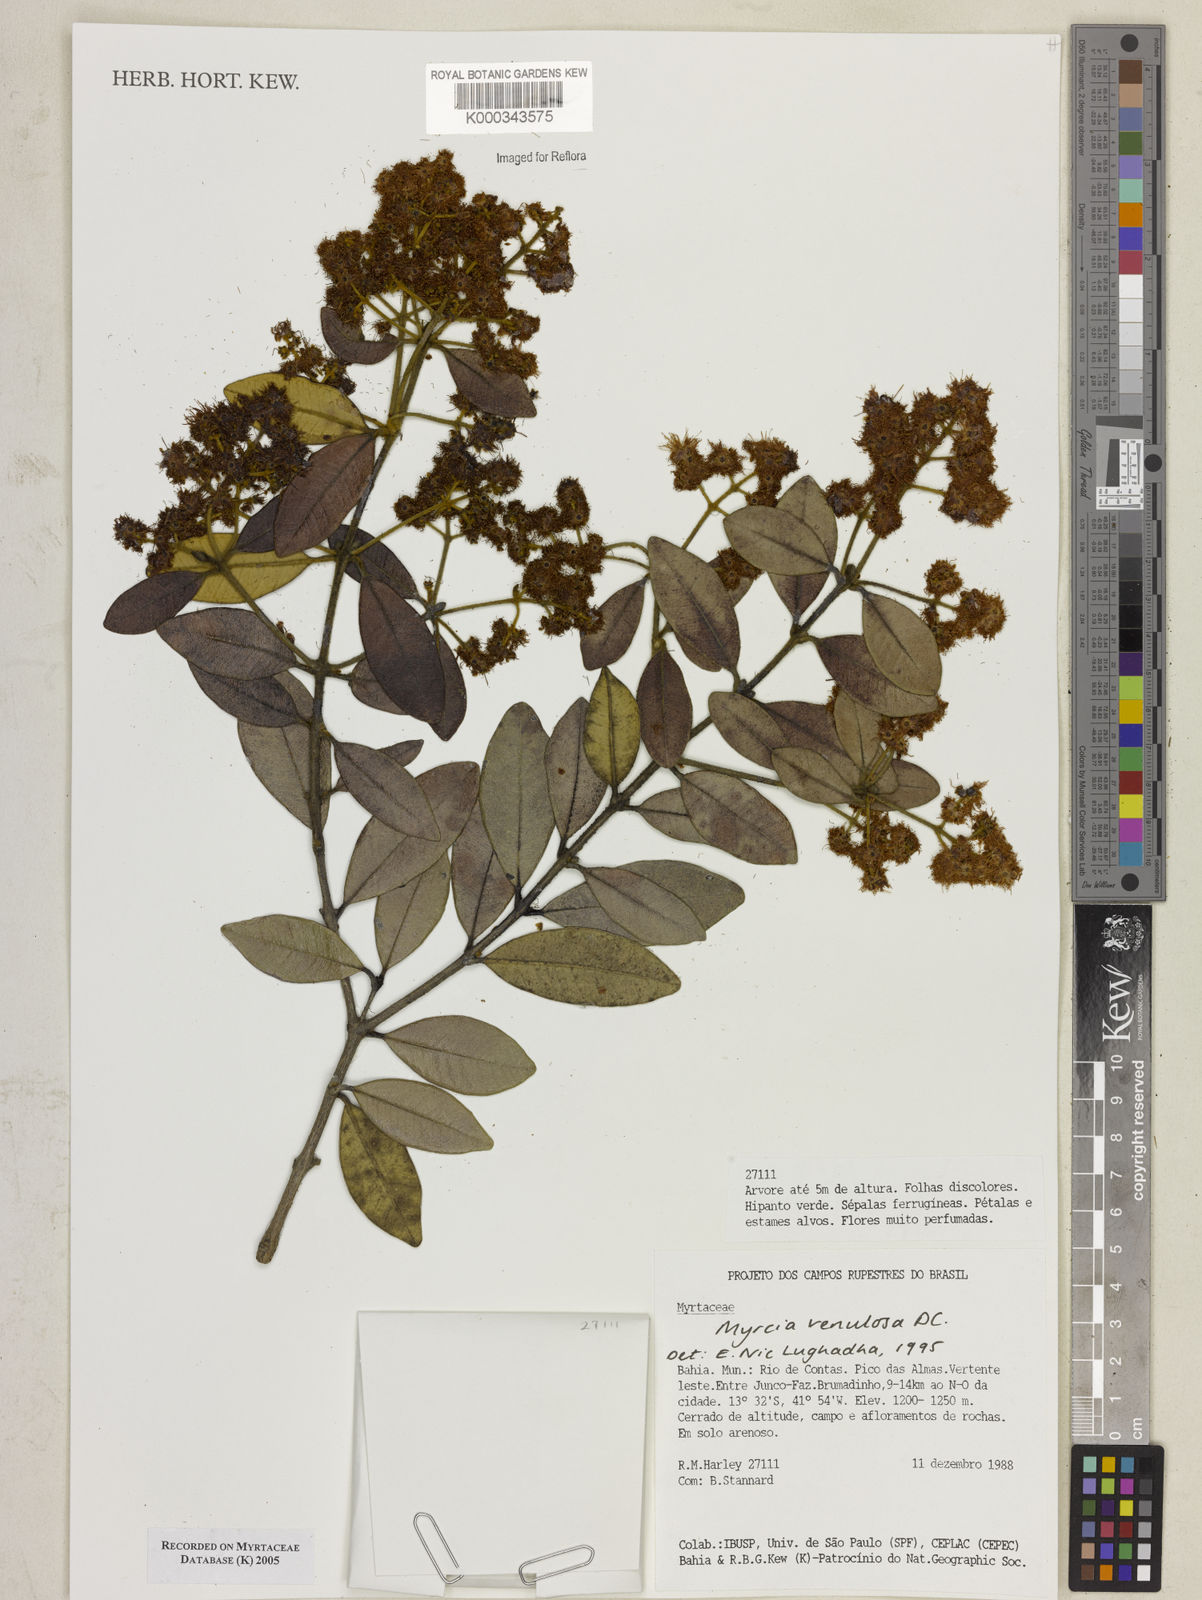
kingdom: Plantae
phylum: Tracheophyta
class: Magnoliopsida
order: Myrtales
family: Myrtaceae
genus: Myrcia
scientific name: Myrcia venulosa
